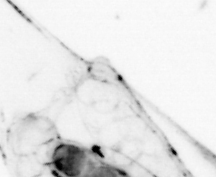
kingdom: Animalia
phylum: Chaetognatha
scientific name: Chaetognatha
